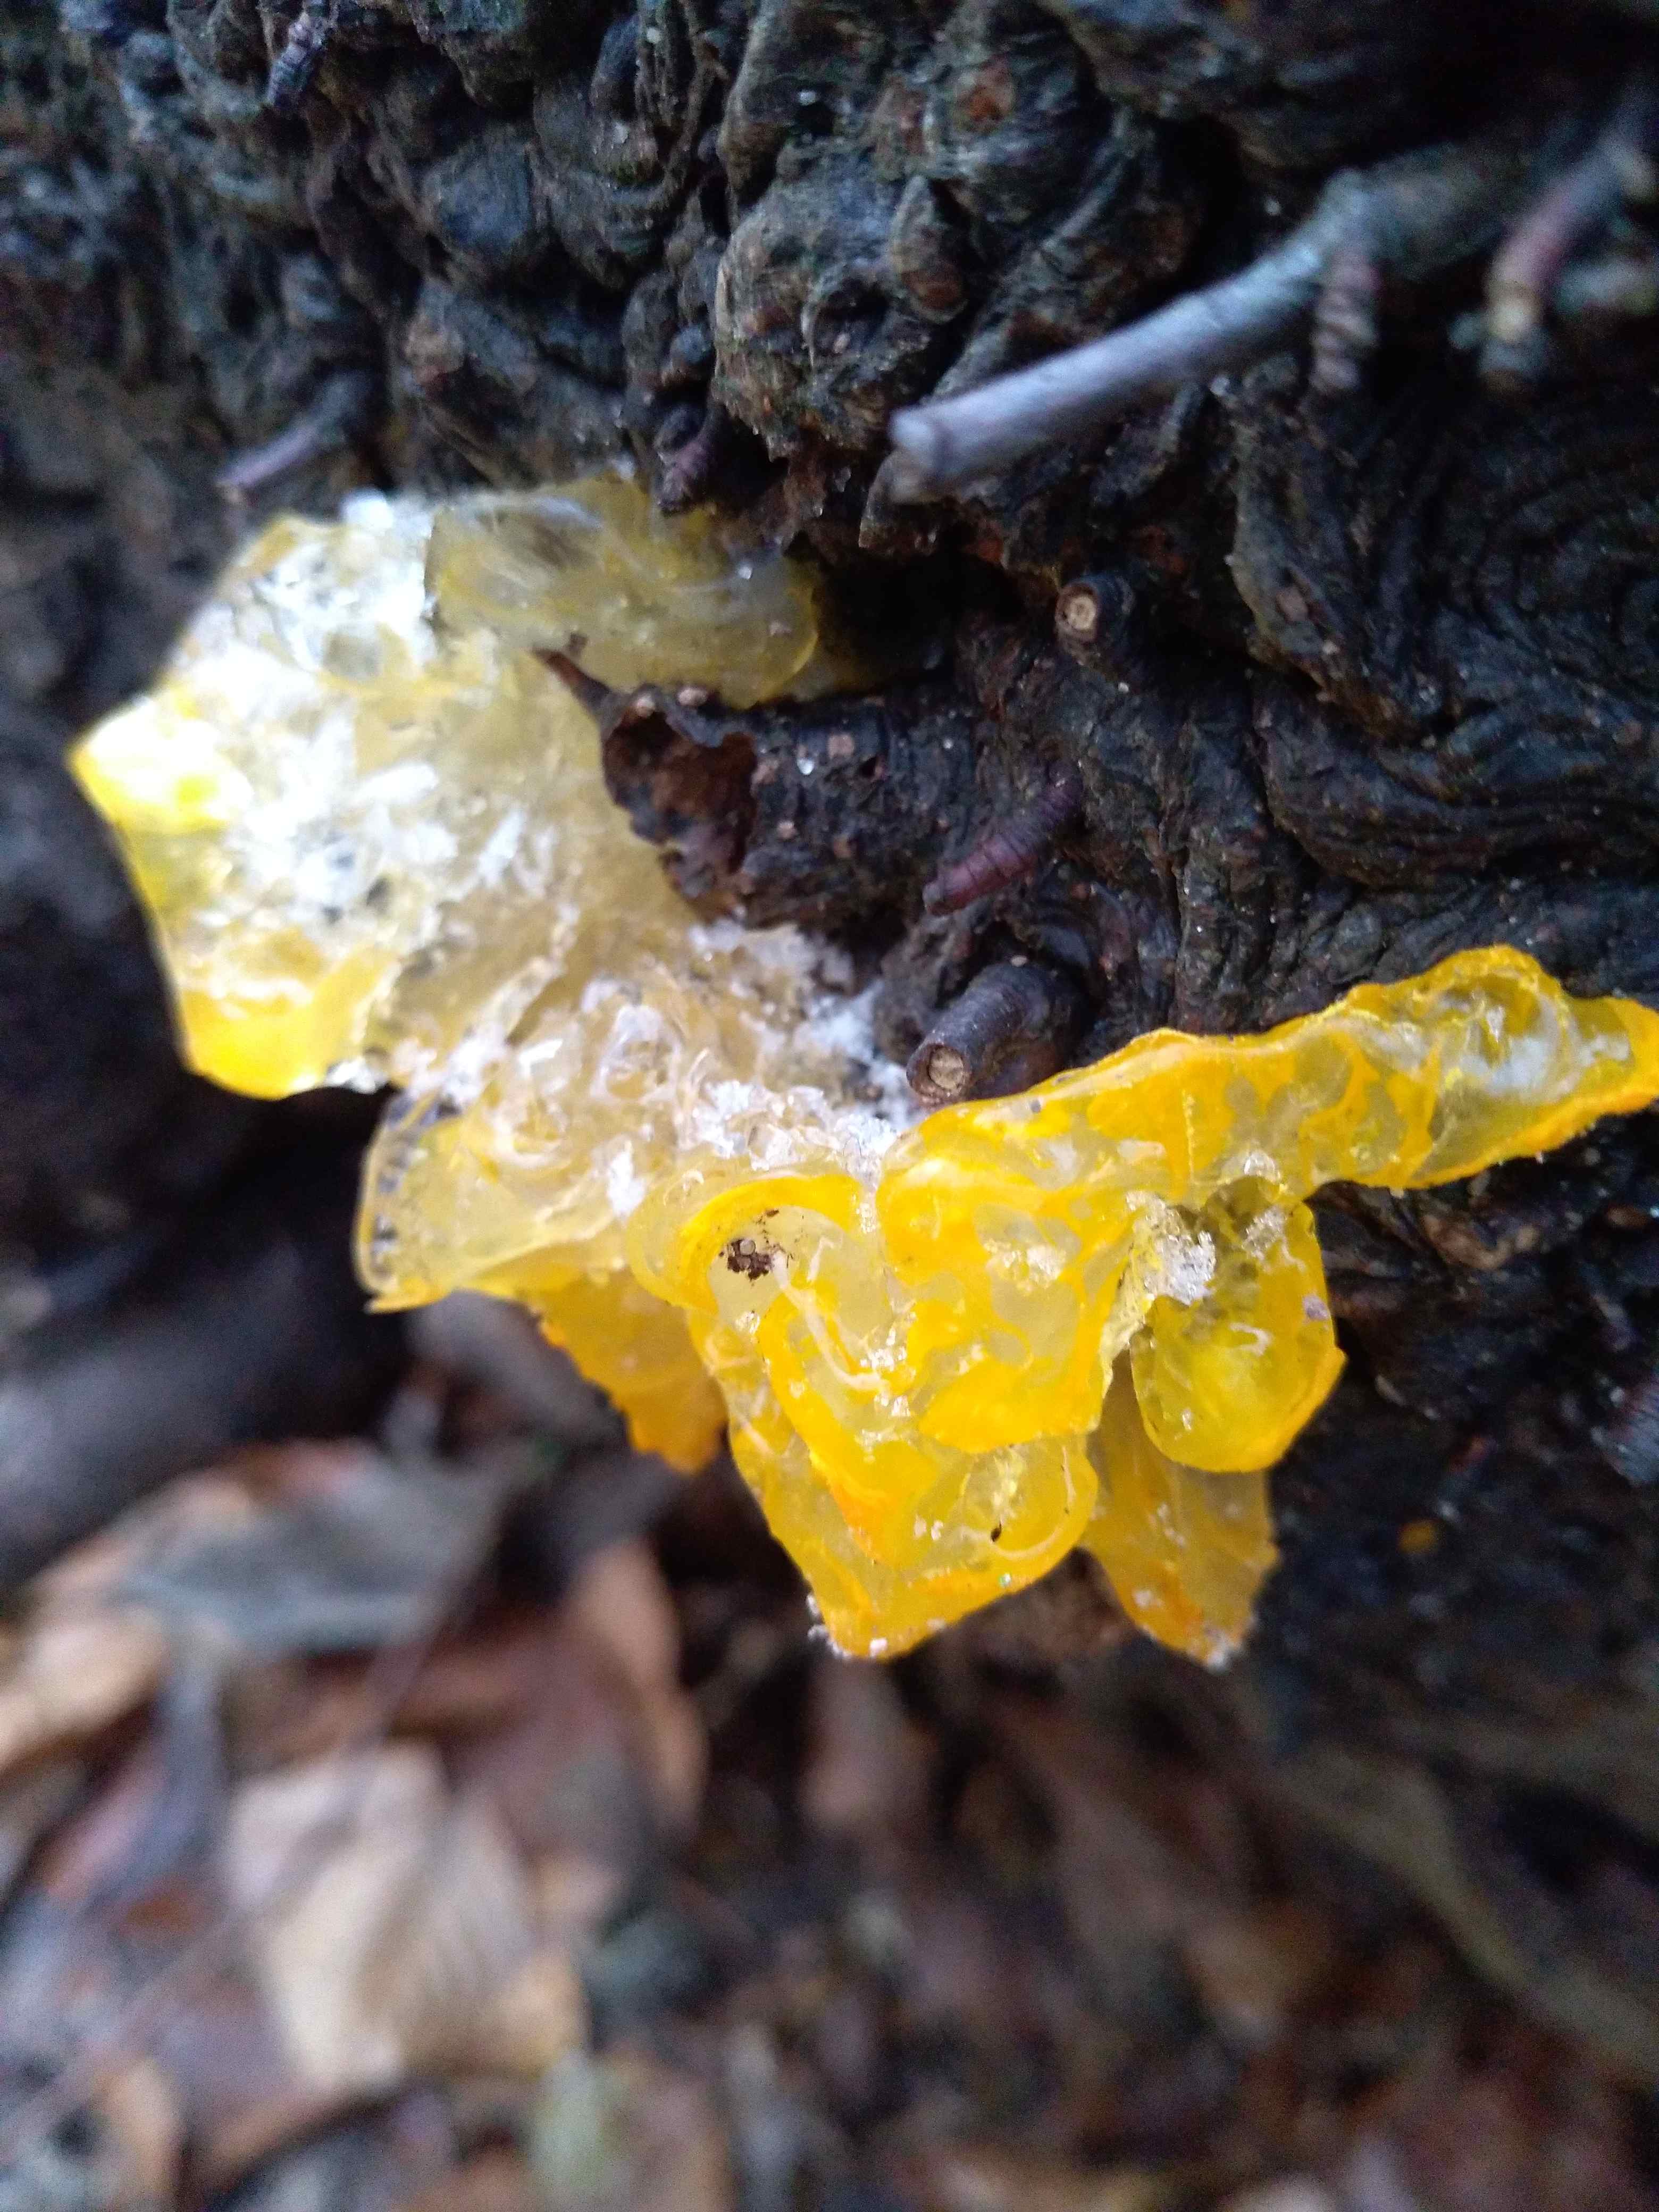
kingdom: Fungi
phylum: Basidiomycota
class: Tremellomycetes
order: Tremellales
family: Tremellaceae
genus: Tremella
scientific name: Tremella mesenterica
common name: gul bævresvamp
